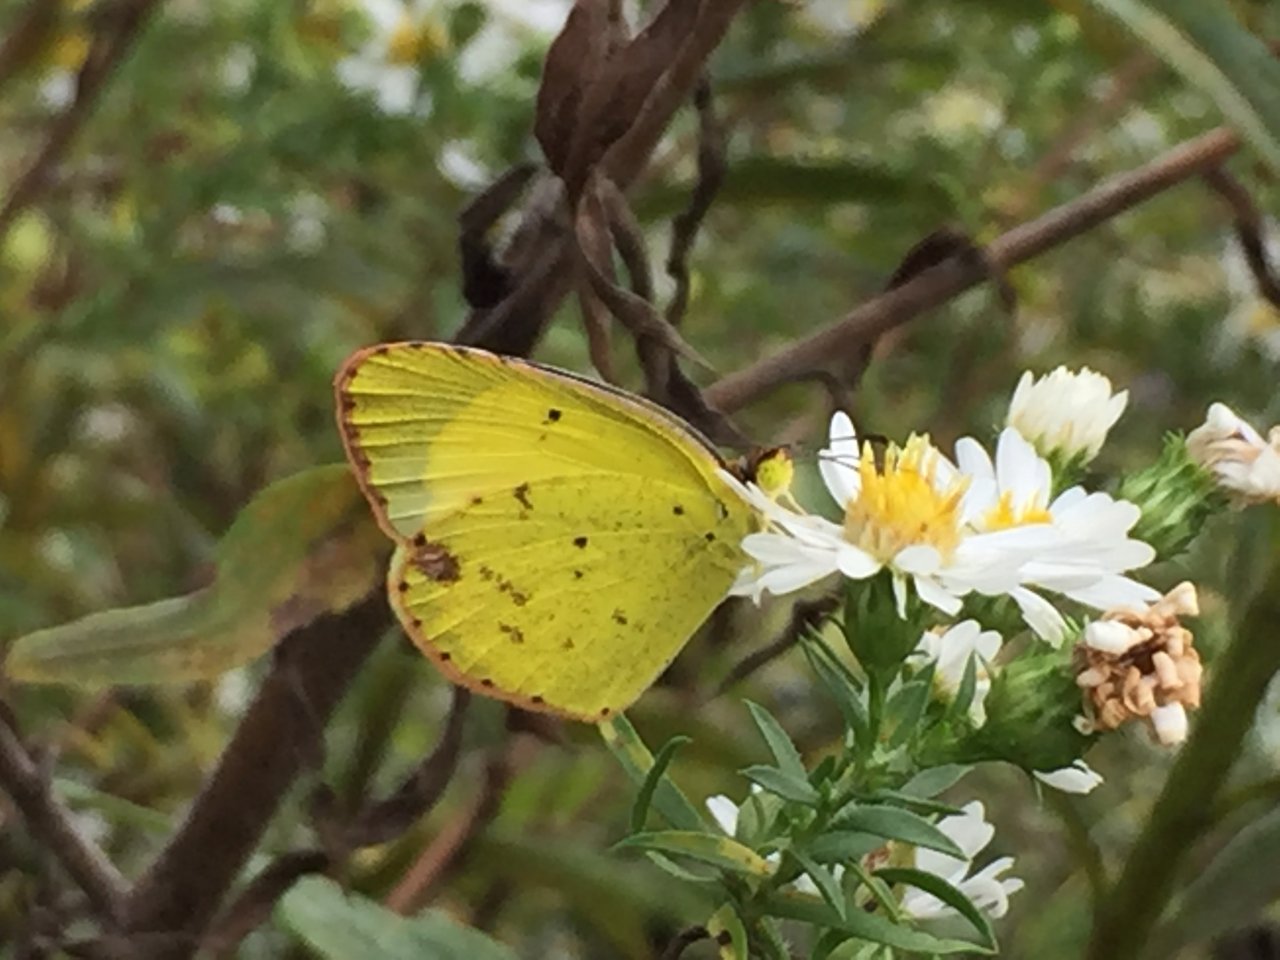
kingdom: Animalia
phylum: Arthropoda
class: Insecta
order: Lepidoptera
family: Pieridae
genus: Pyrisitia
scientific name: Pyrisitia lisa
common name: Little Yellow
